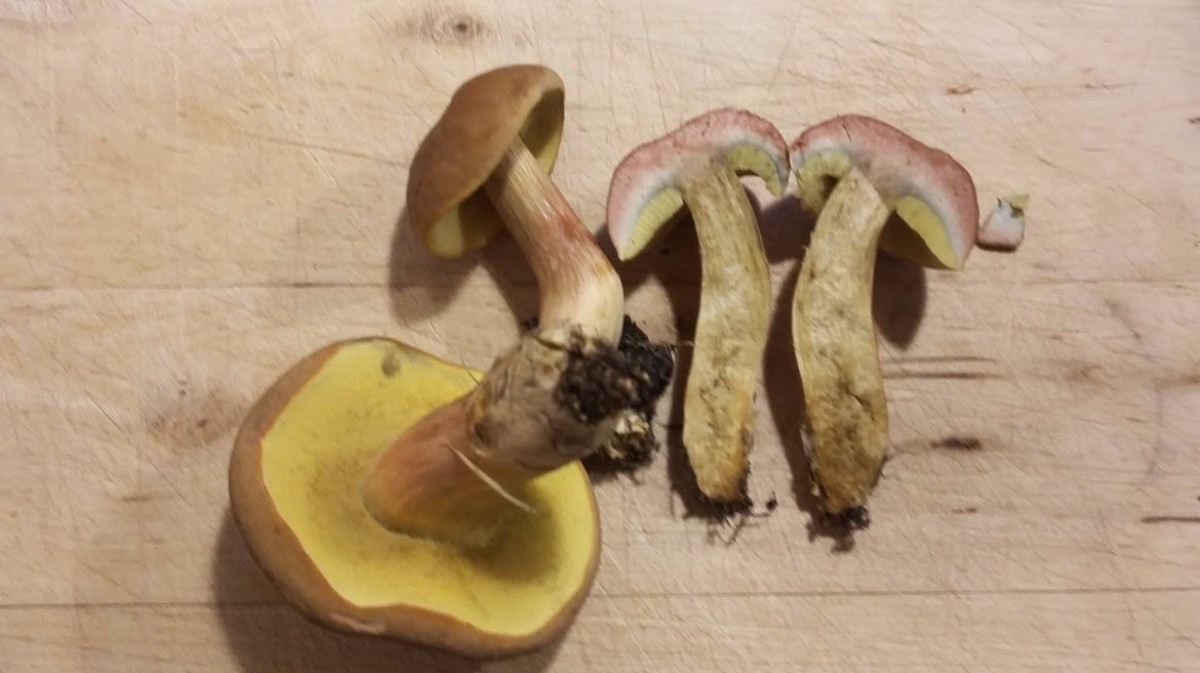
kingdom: Fungi
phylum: Basidiomycota
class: Agaricomycetes
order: Boletales
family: Boletaceae
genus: Hortiboletus
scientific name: Hortiboletus bubalinus
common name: aurora-rørhat
